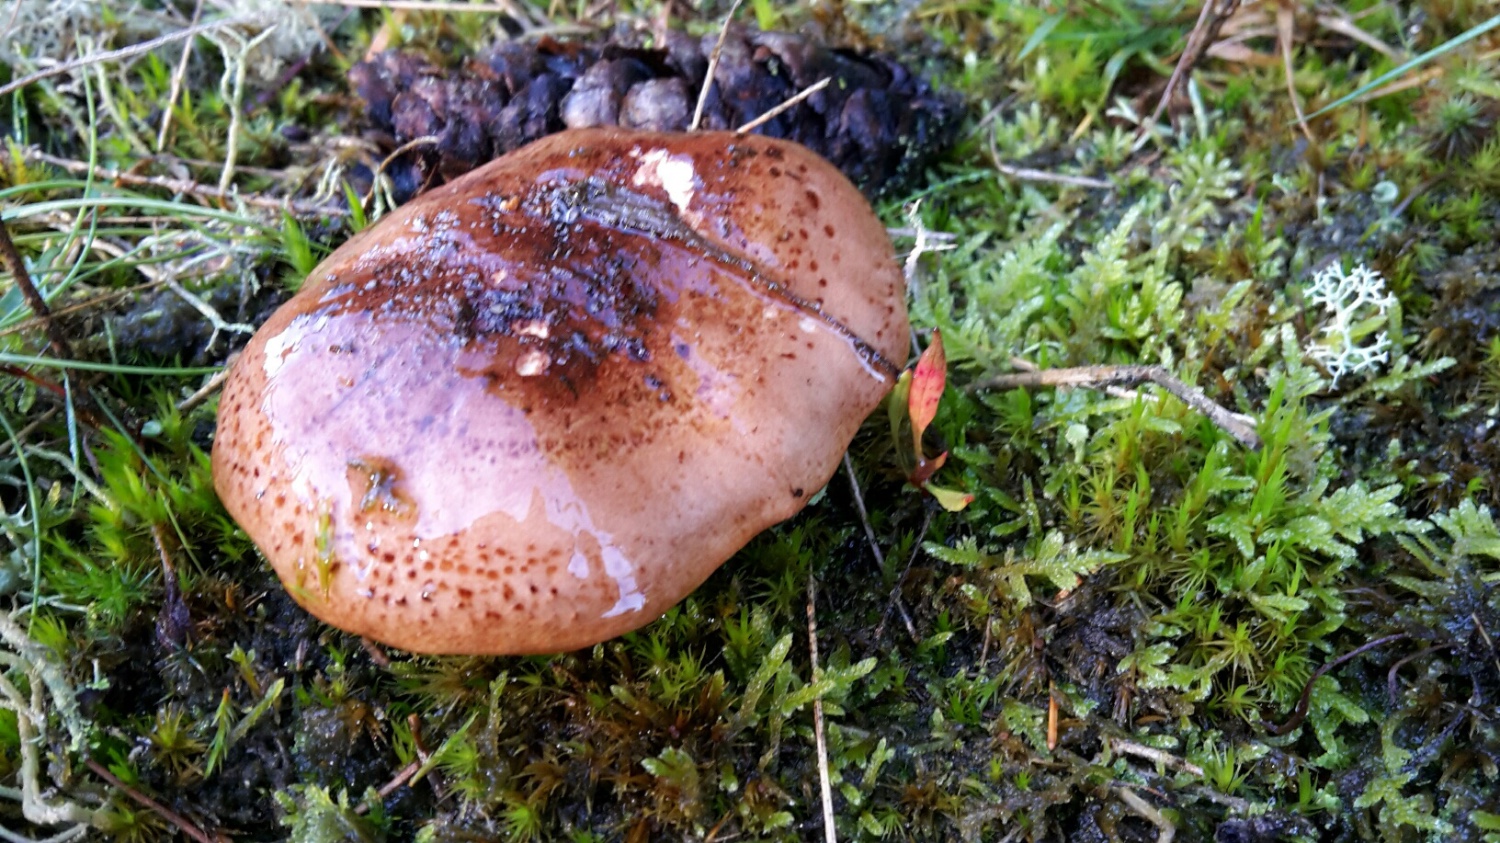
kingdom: Fungi
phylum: Basidiomycota
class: Agaricomycetes
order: Agaricales
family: Tricholomataceae
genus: Tricholoma
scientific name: Tricholoma pessundatum
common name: dråbeplettet ridderhat
